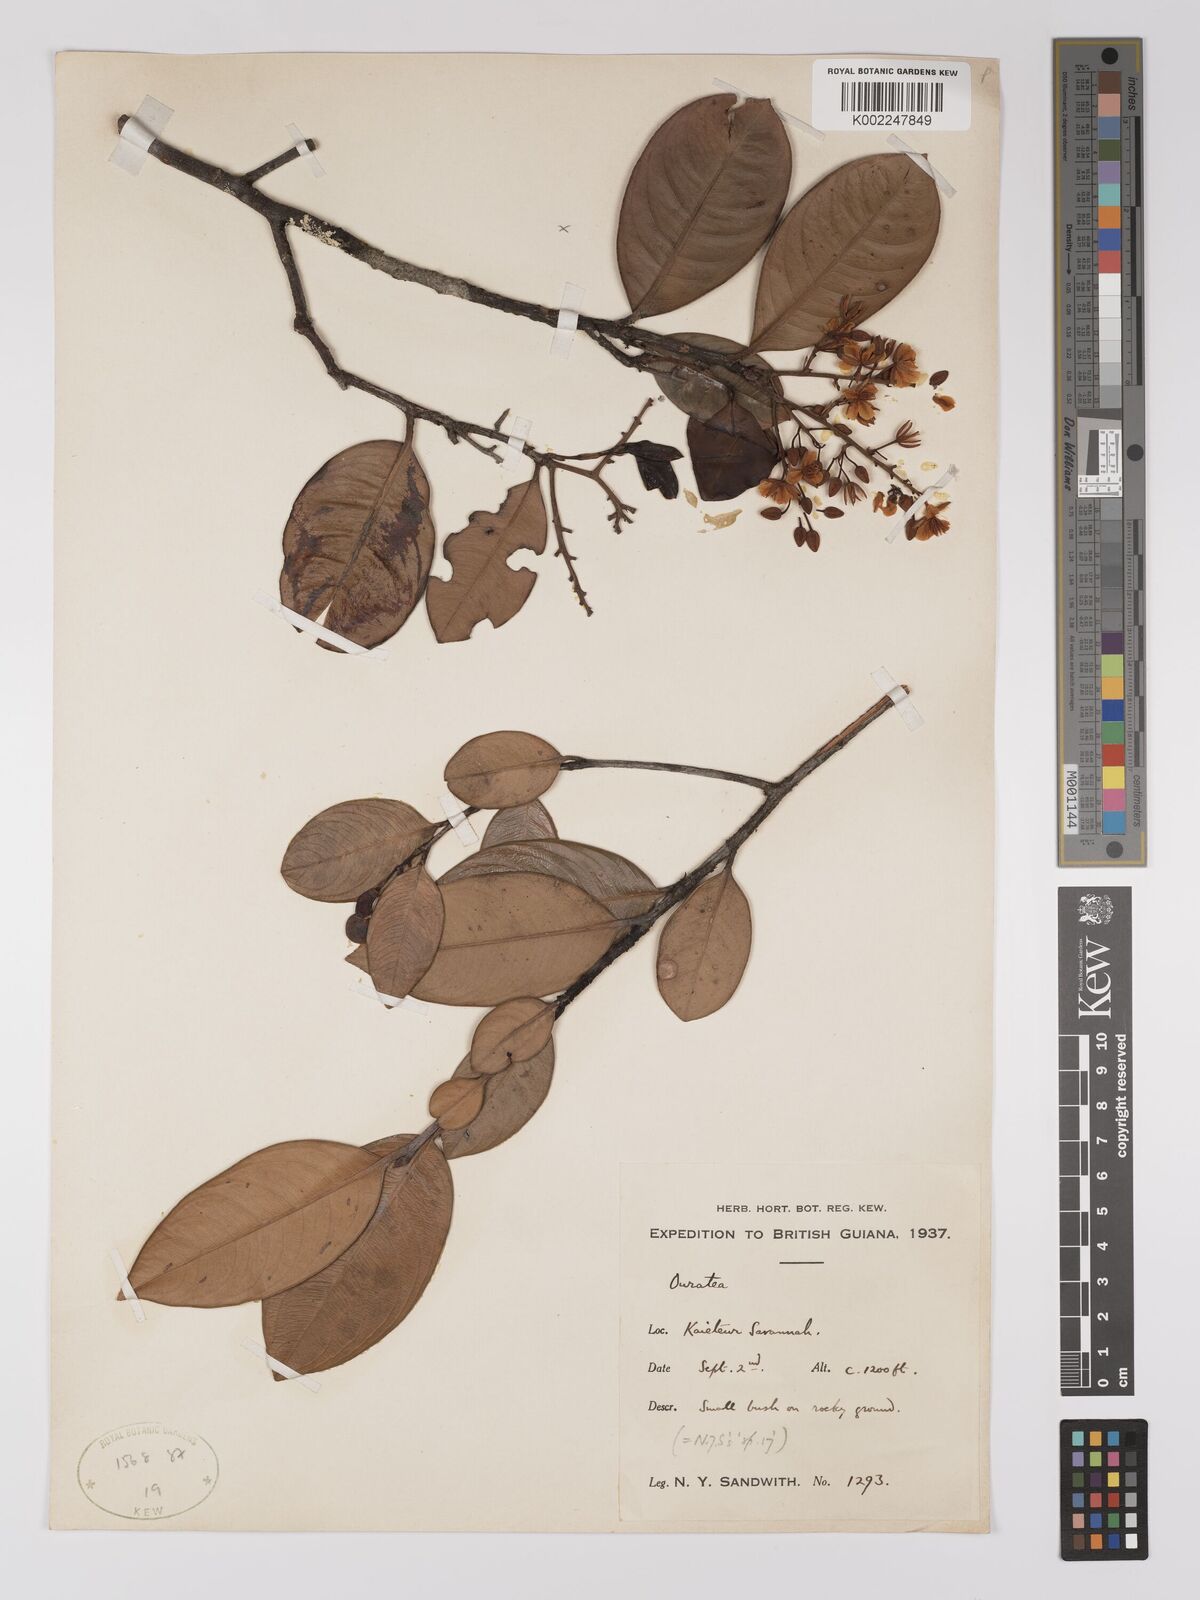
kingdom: Plantae
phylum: Tracheophyta
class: Magnoliopsida
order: Malpighiales
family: Ochnaceae
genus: Ouratea
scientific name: Ouratea
